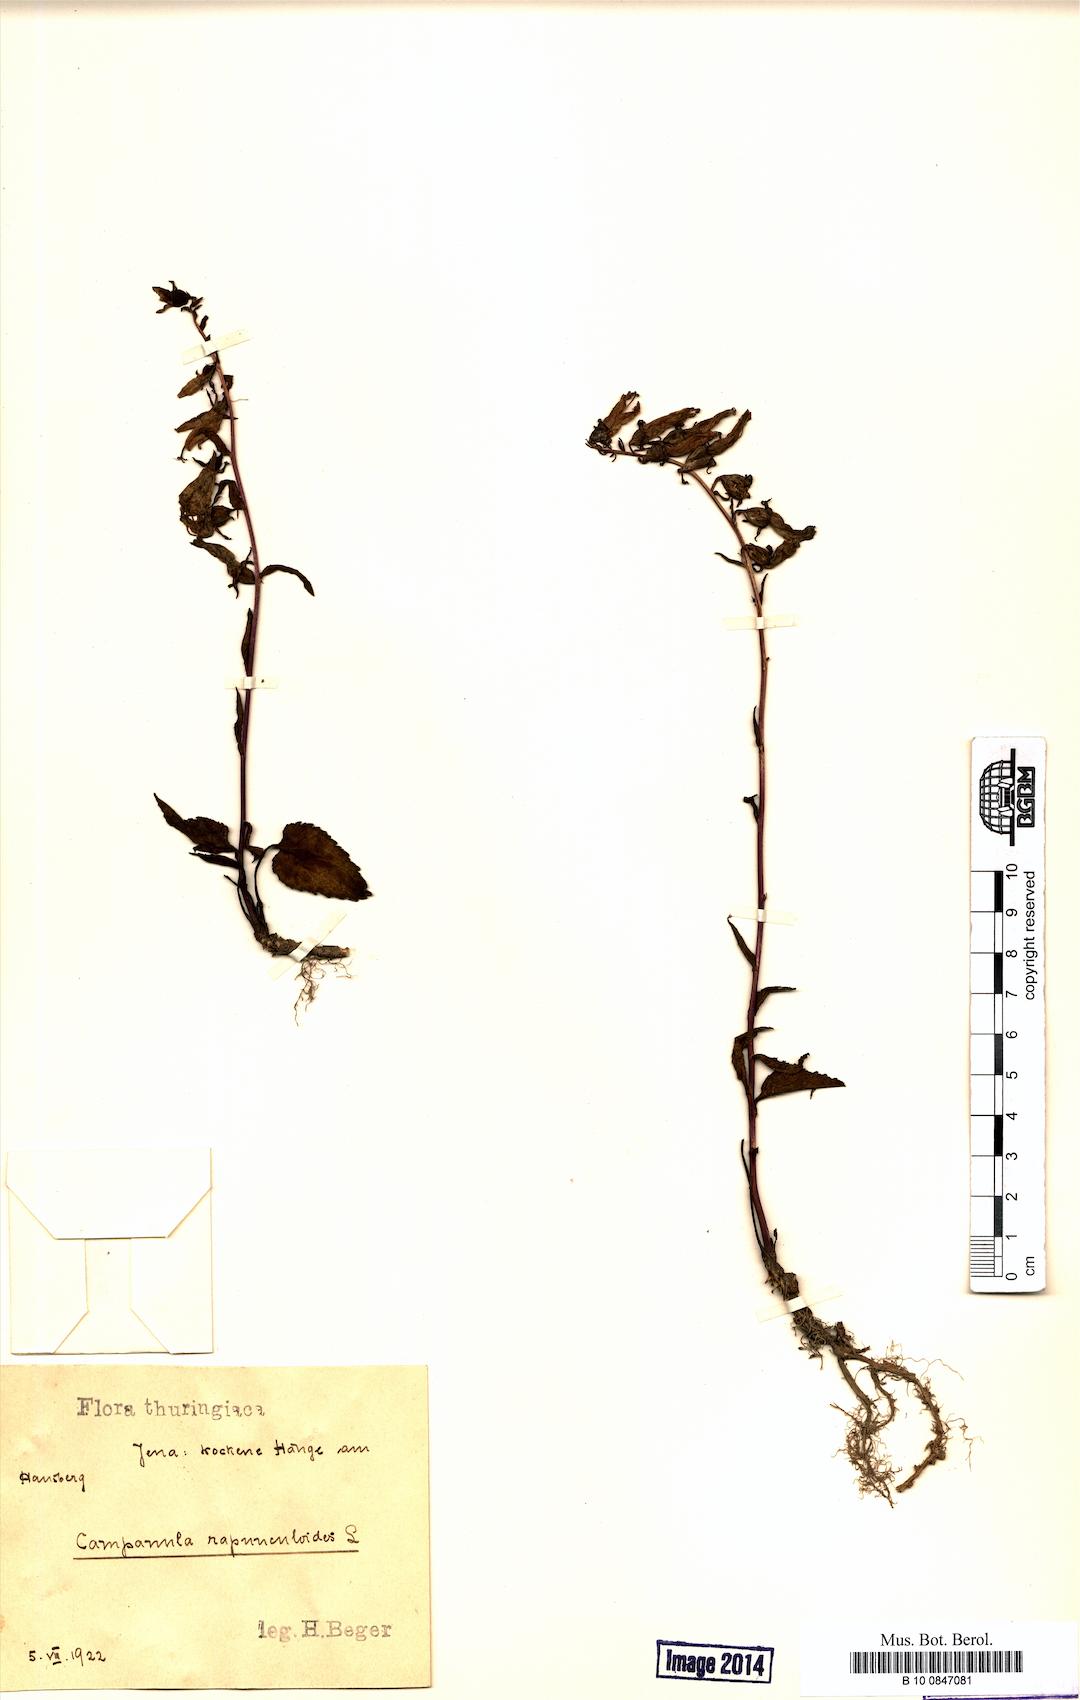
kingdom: Plantae
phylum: Tracheophyta
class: Magnoliopsida
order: Asterales
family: Campanulaceae
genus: Campanula
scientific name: Campanula rapunculoides
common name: Creeping bellflower
